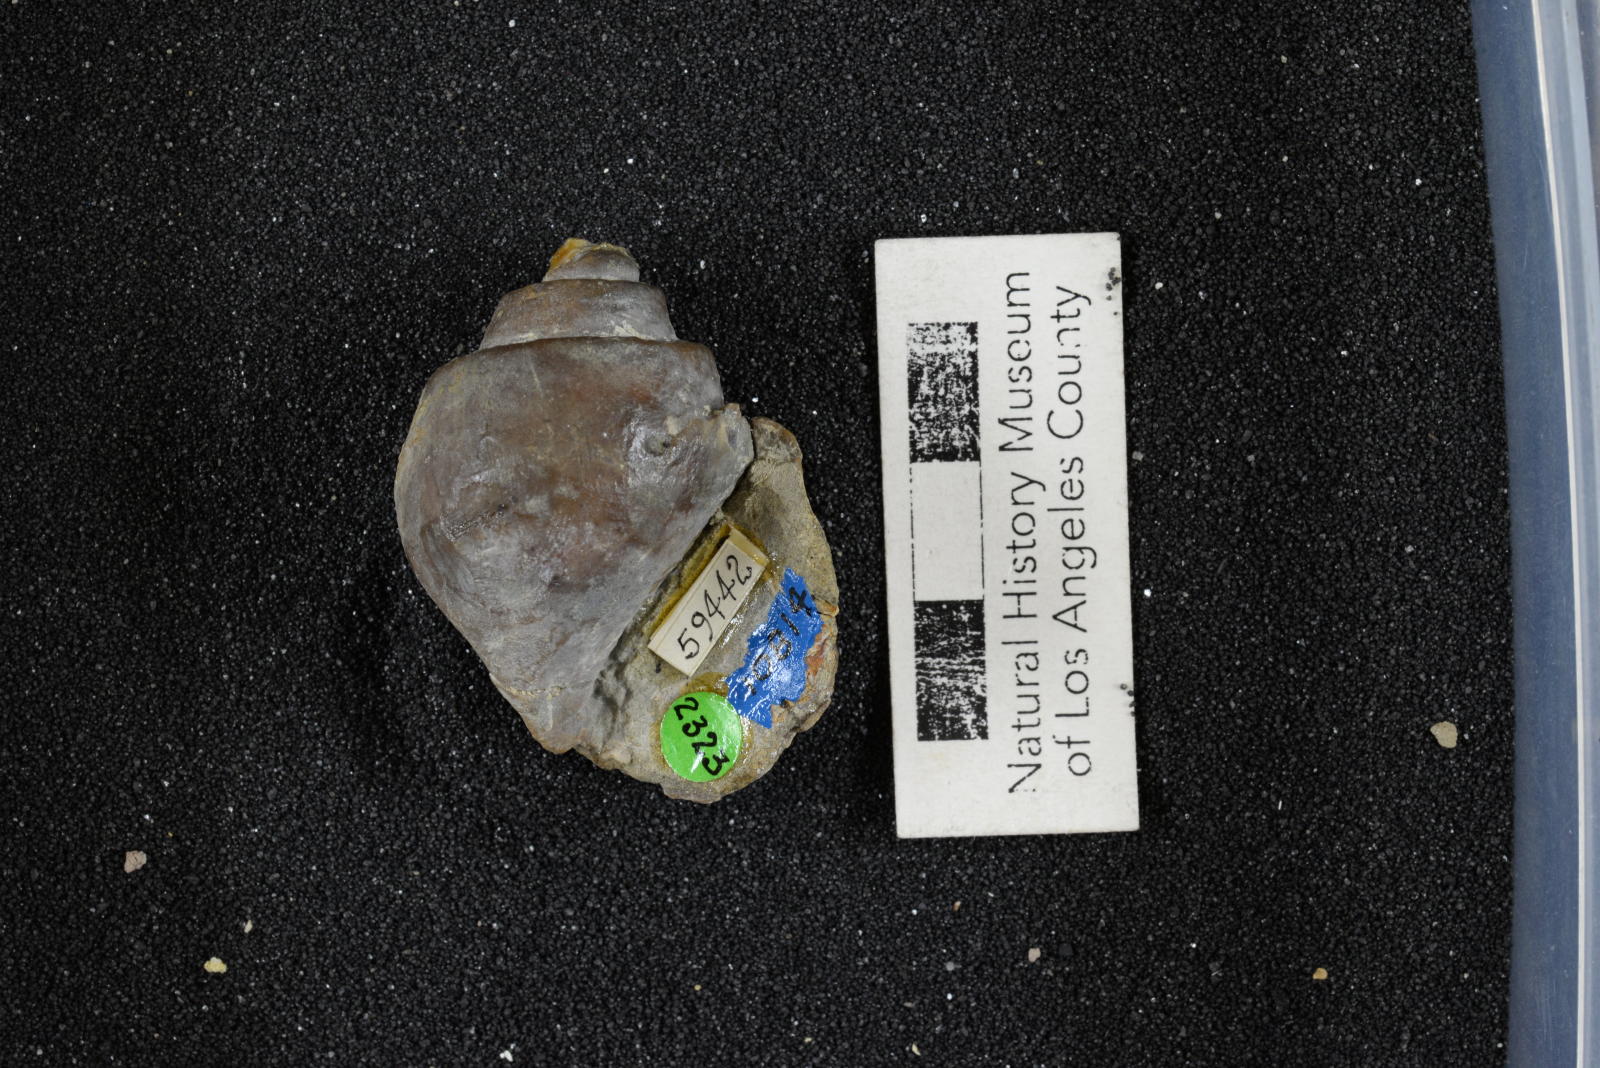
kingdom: Animalia
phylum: Mollusca
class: Gastropoda
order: Architaenioglossa
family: Ampullinidae
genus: Ampullina
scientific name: Ampullina Amauropsis pseudoalveata
